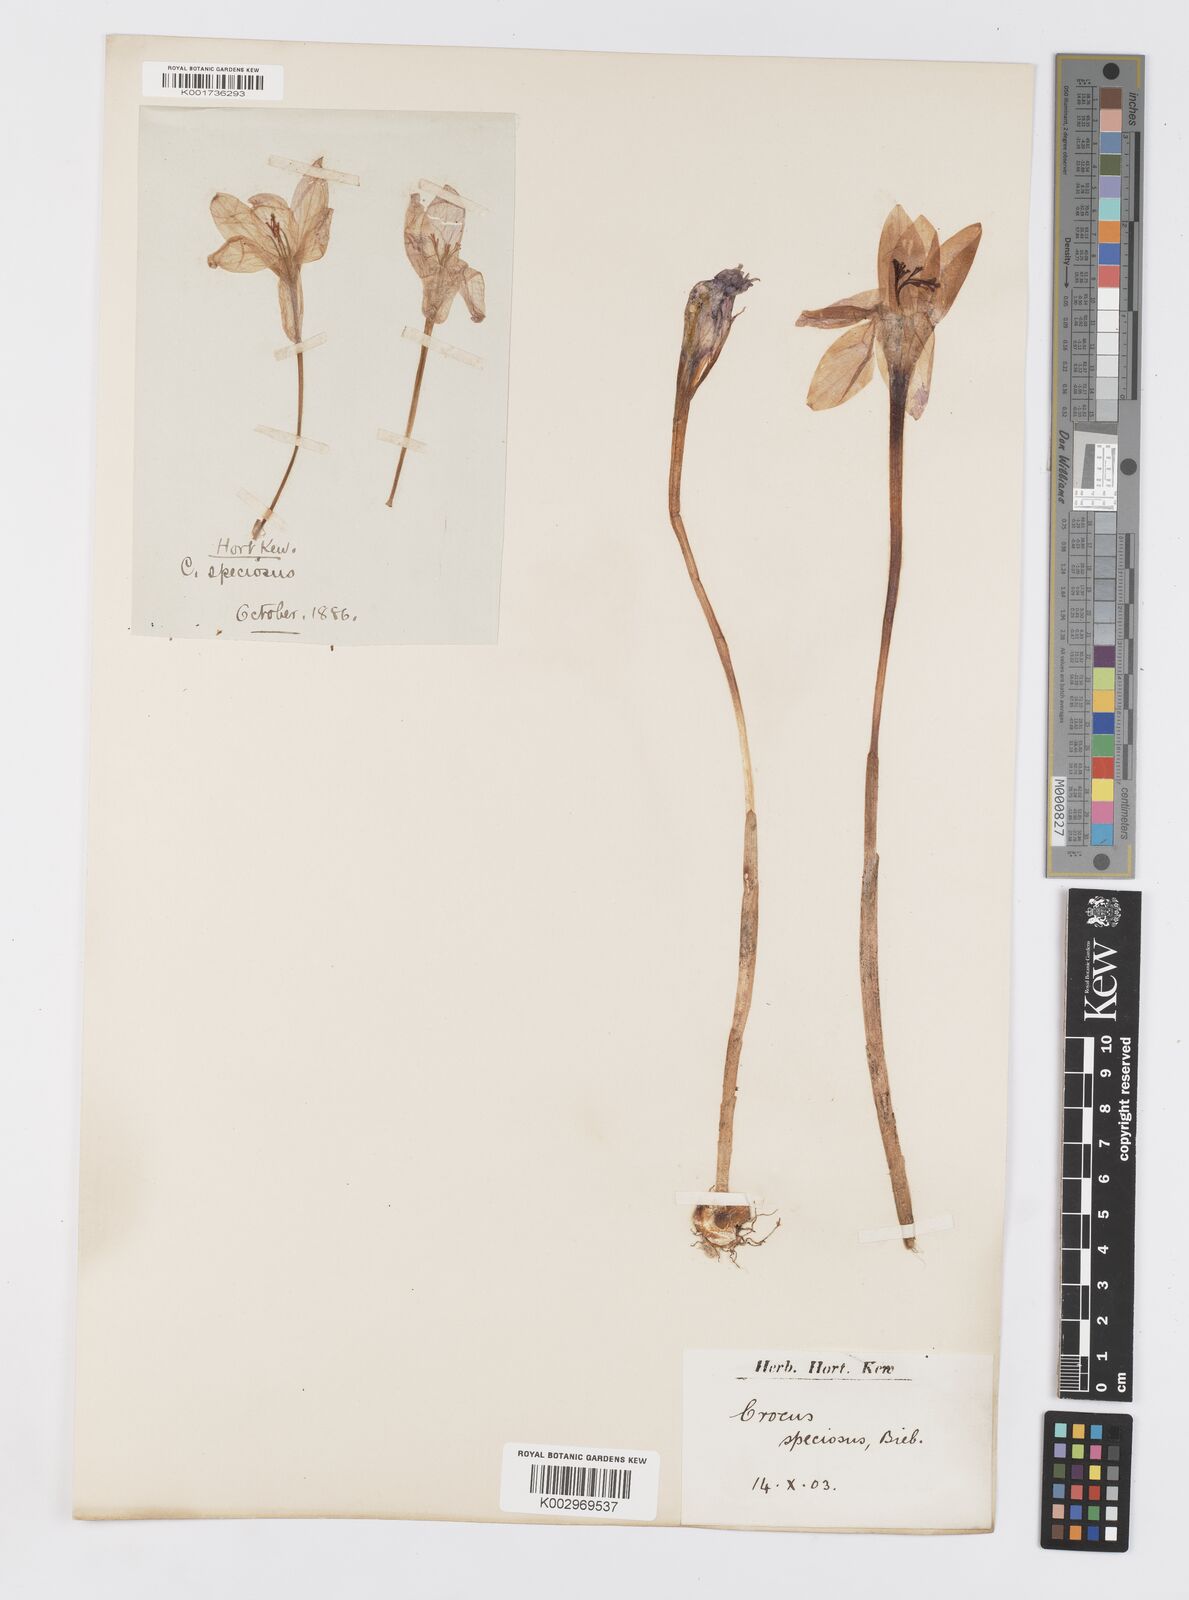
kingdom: Plantae
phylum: Tracheophyta
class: Liliopsida
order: Asparagales
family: Iridaceae
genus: Crocus
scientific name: Crocus speciosus
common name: Bieberstein's crocus
